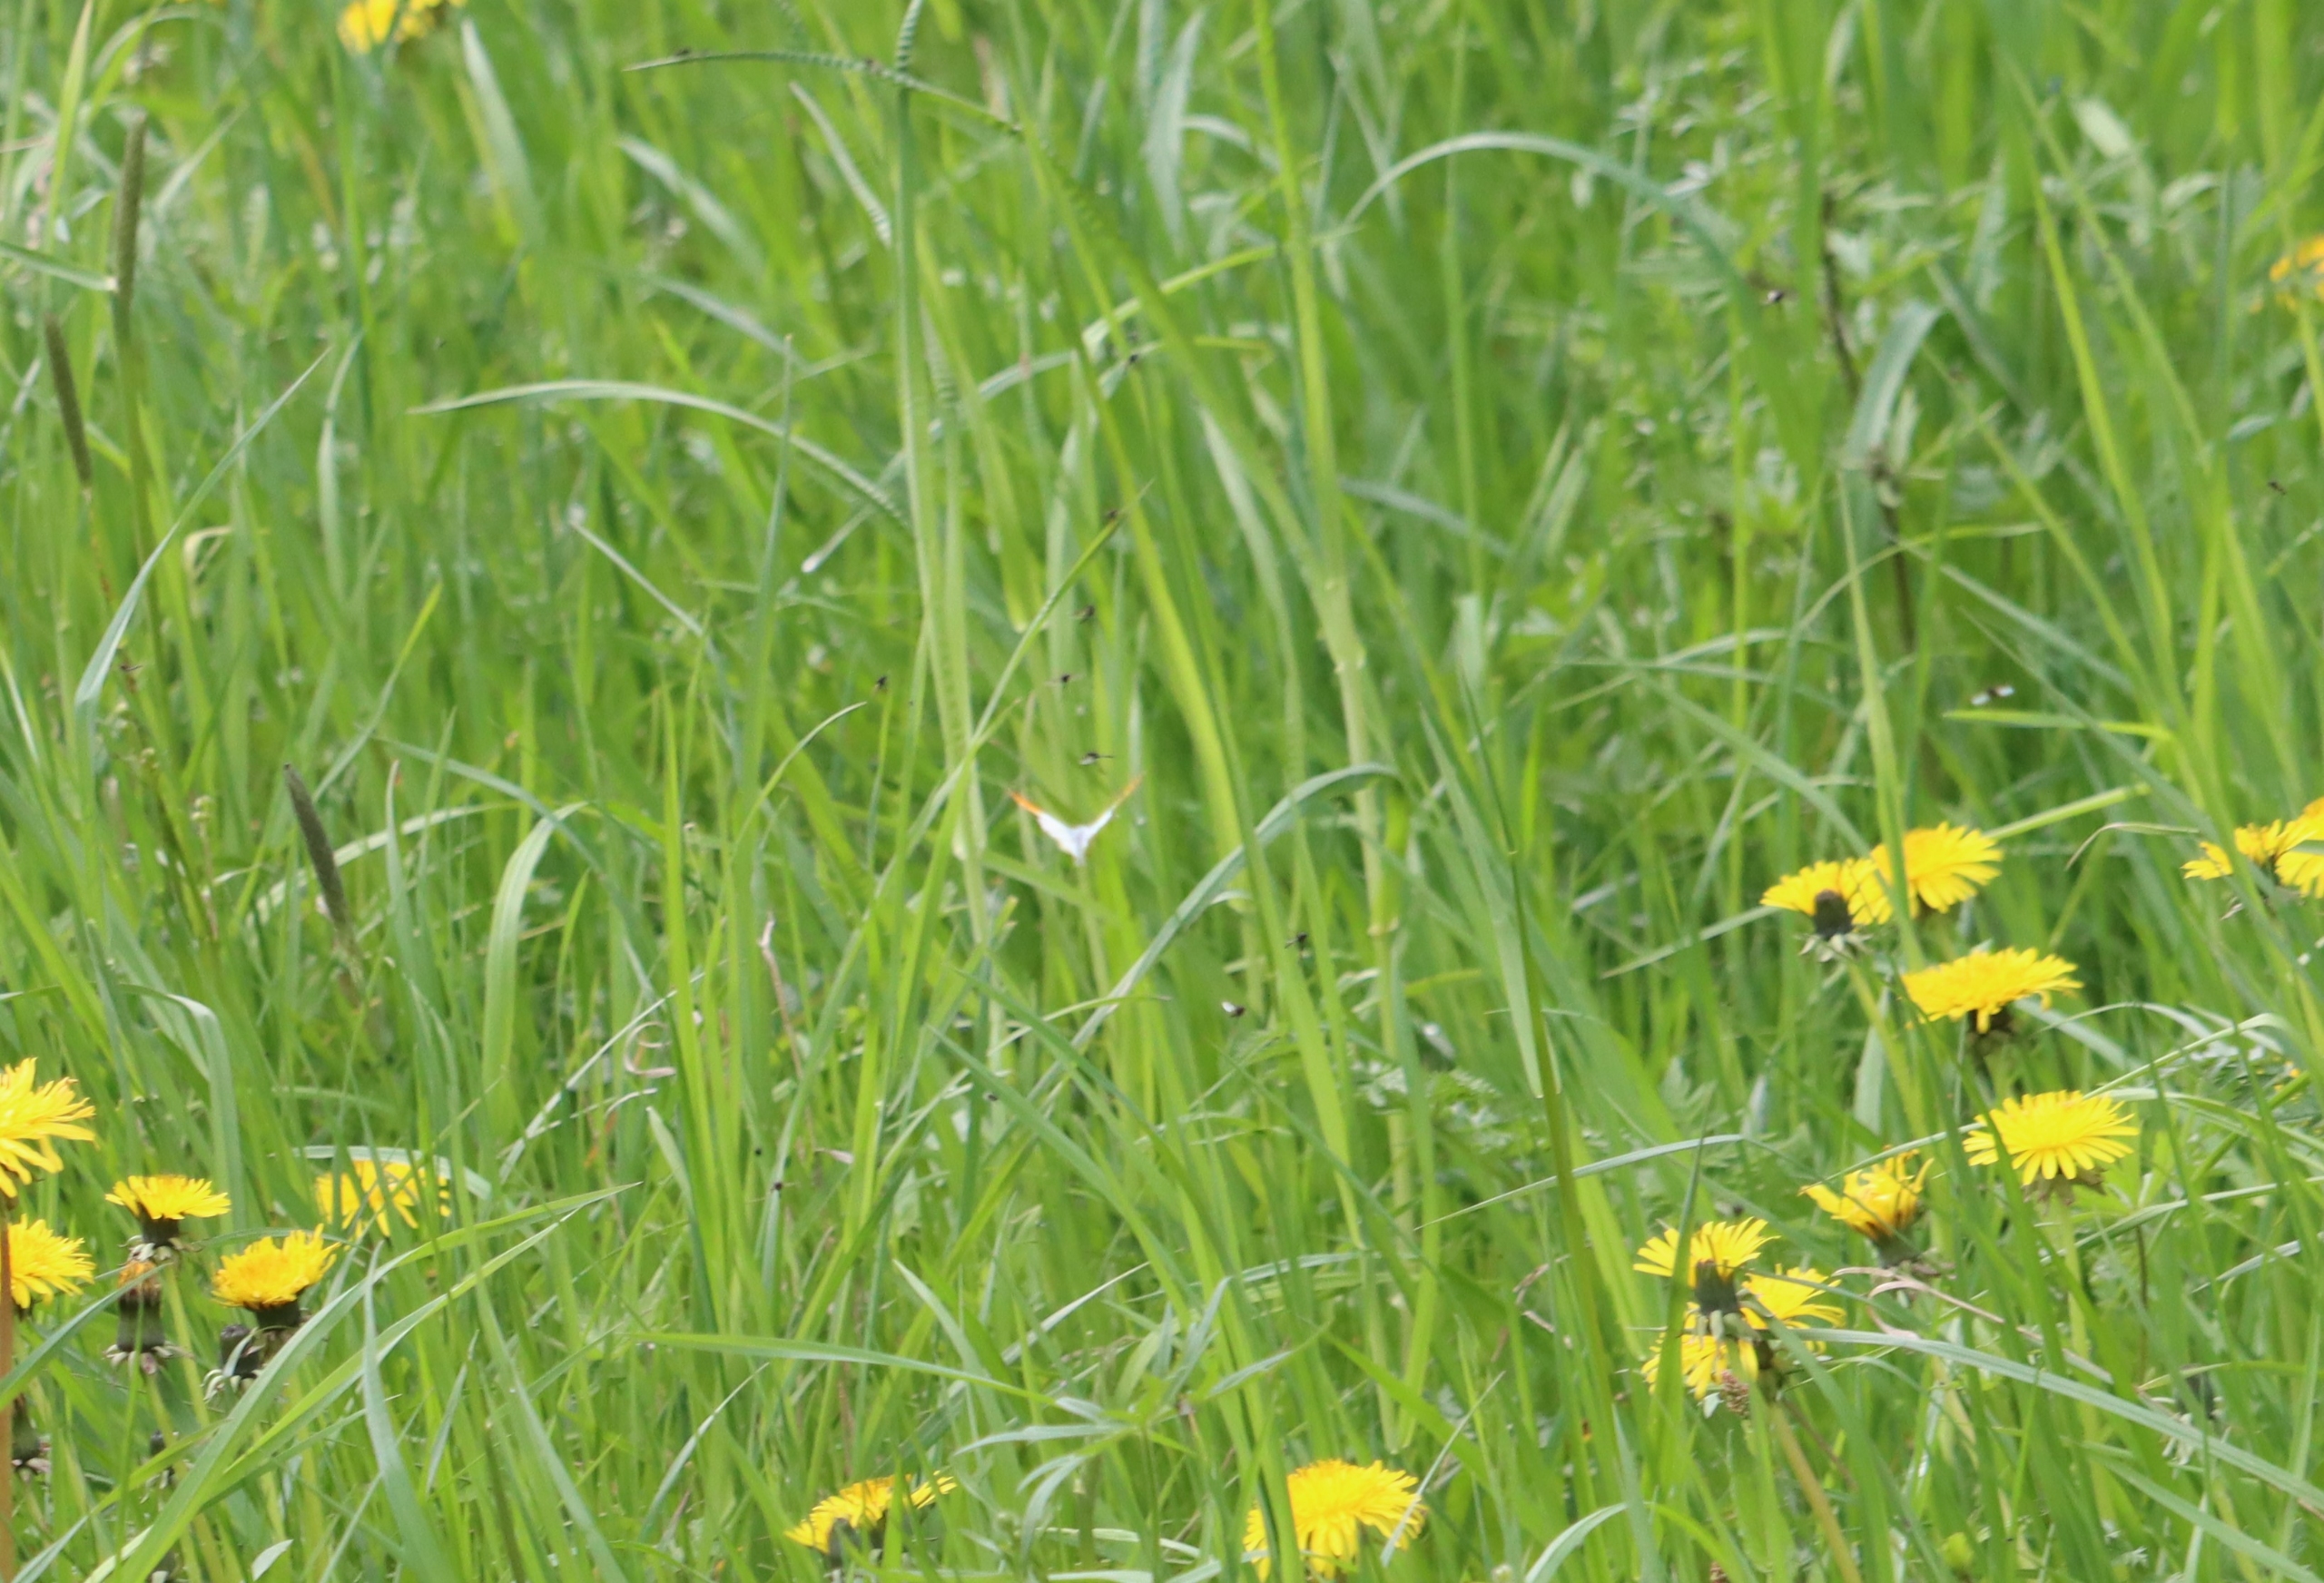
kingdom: Animalia
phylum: Arthropoda
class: Insecta
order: Lepidoptera
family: Pieridae
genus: Anthocharis
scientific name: Anthocharis cardamines
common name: Aurora
